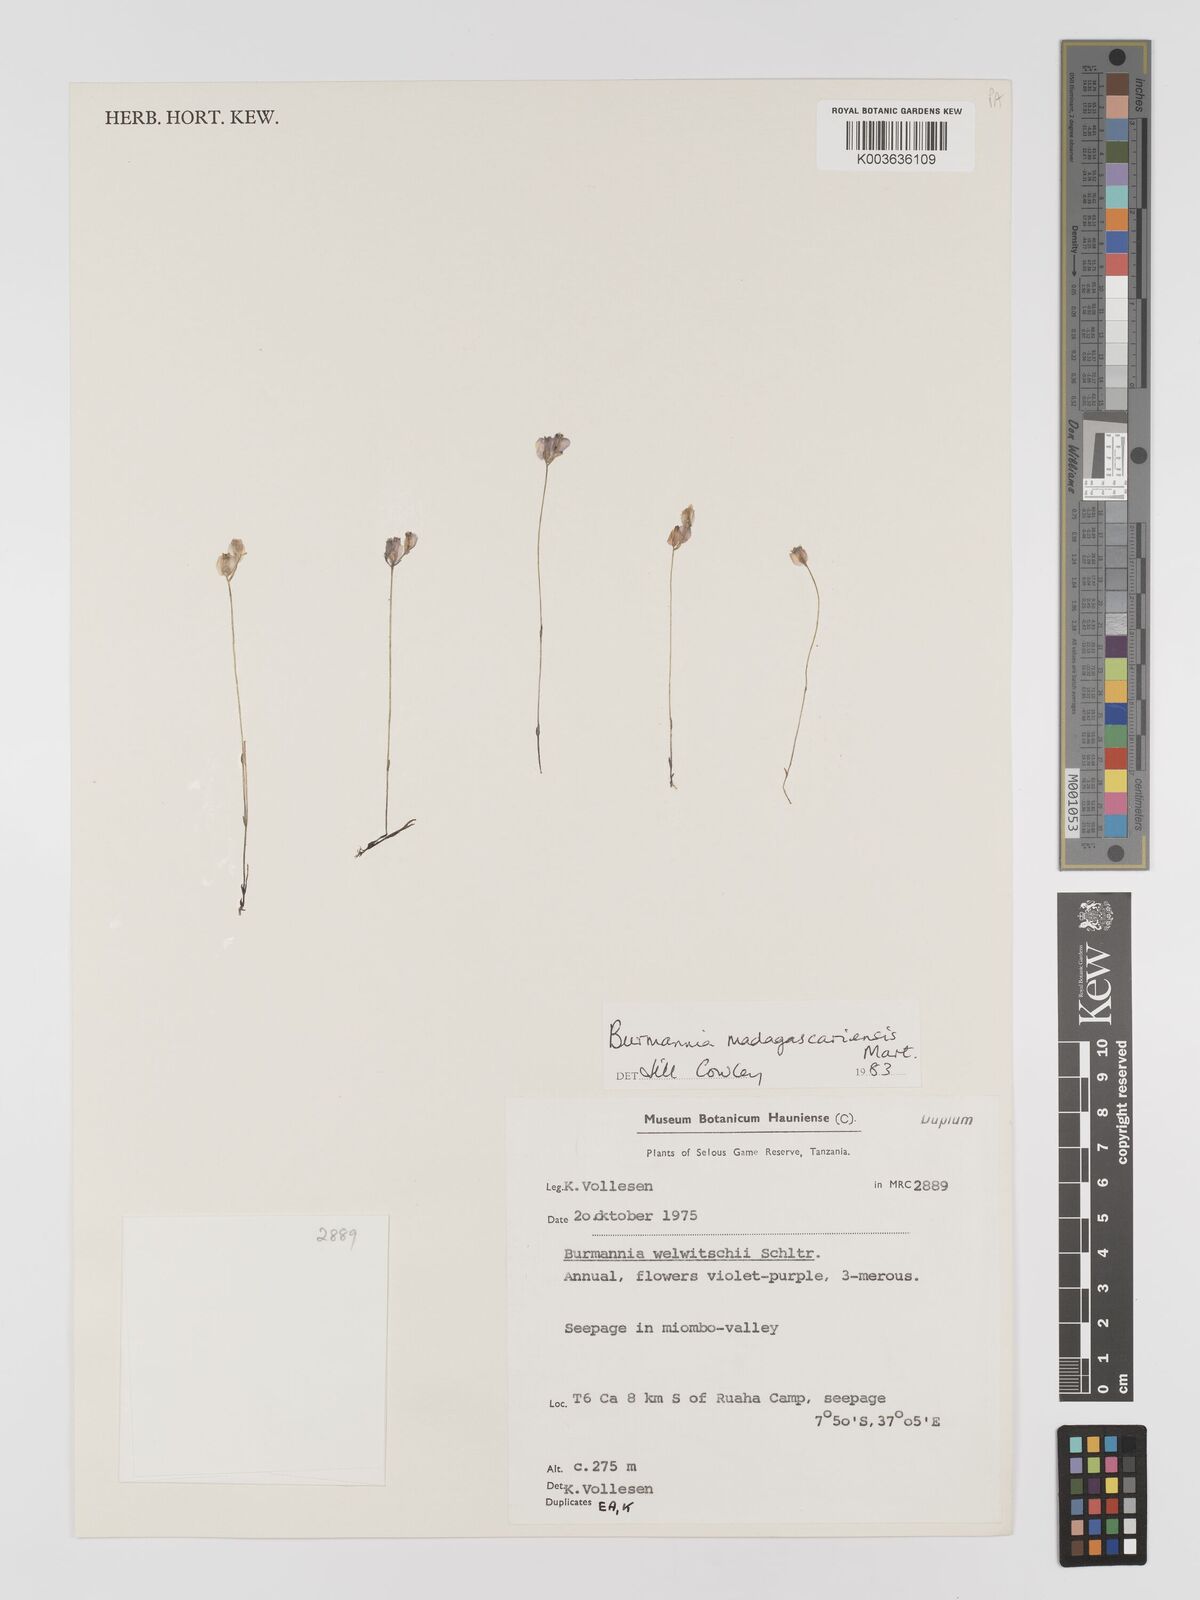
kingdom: Plantae
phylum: Tracheophyta
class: Liliopsida
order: Dioscoreales
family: Burmanniaceae
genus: Burmannia
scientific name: Burmannia madagascariensis
